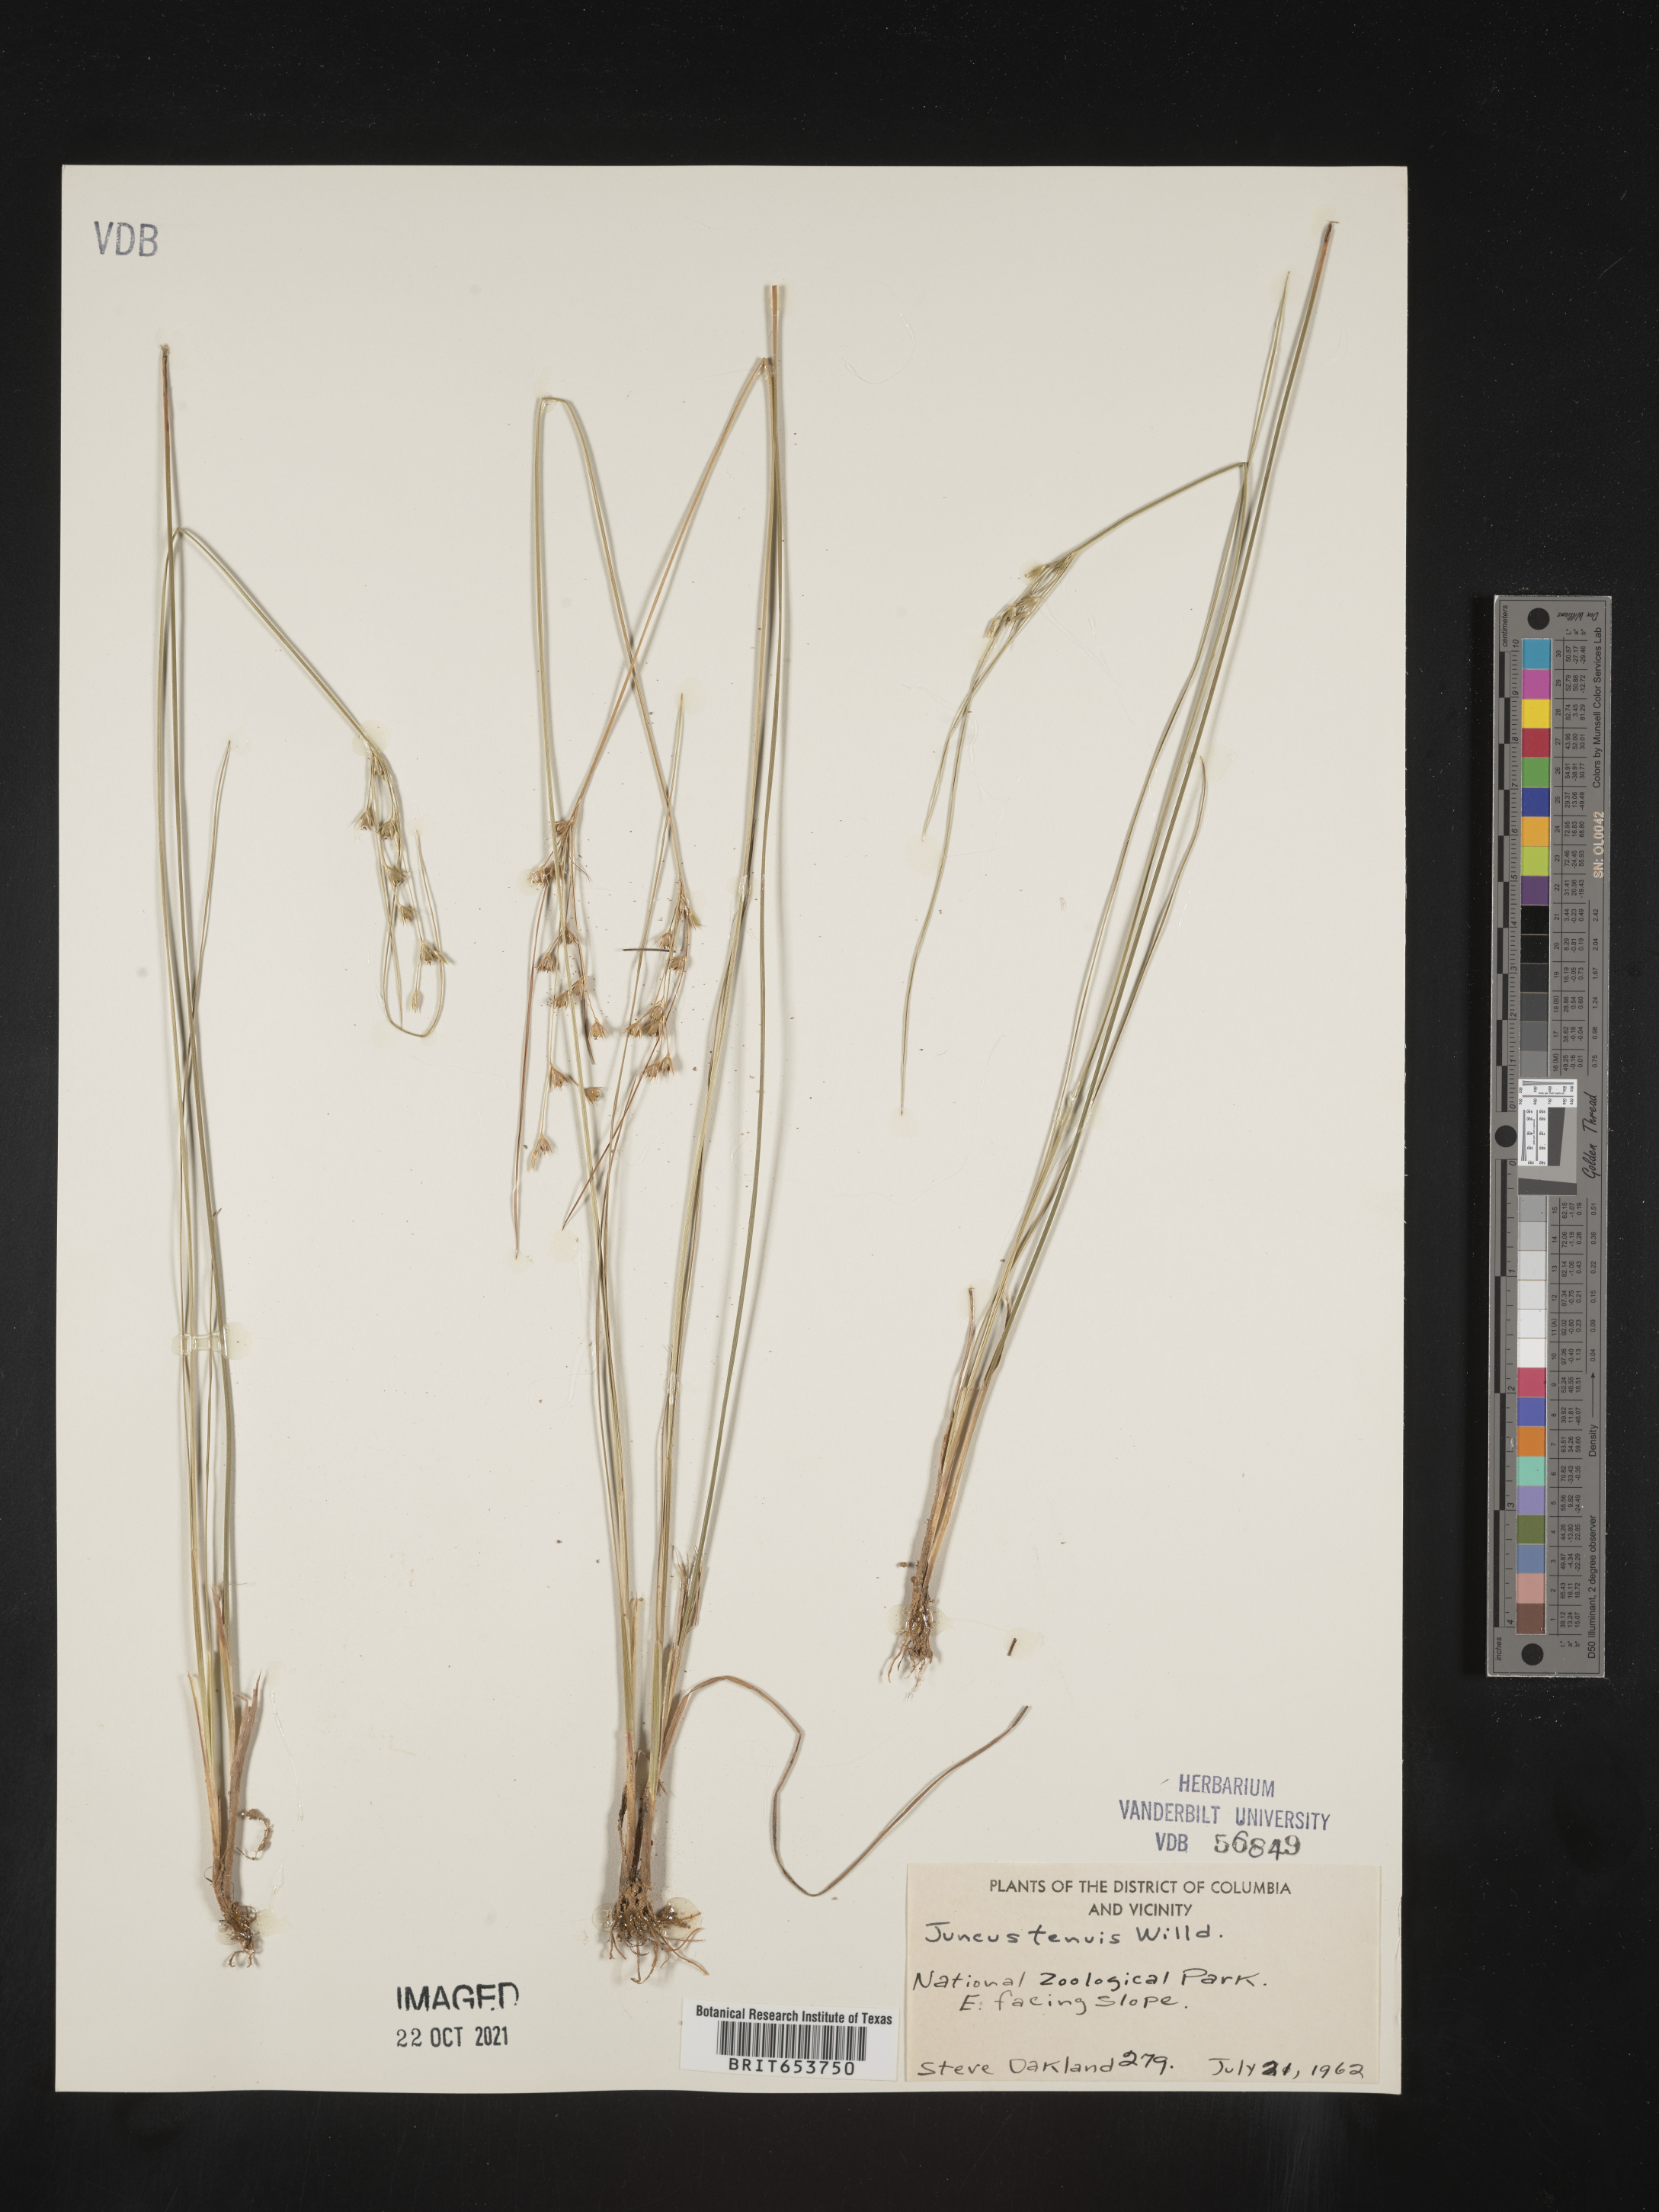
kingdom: Plantae
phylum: Tracheophyta
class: Liliopsida
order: Poales
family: Juncaceae
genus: Juncus
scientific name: Juncus tenuis
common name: Slender rush
